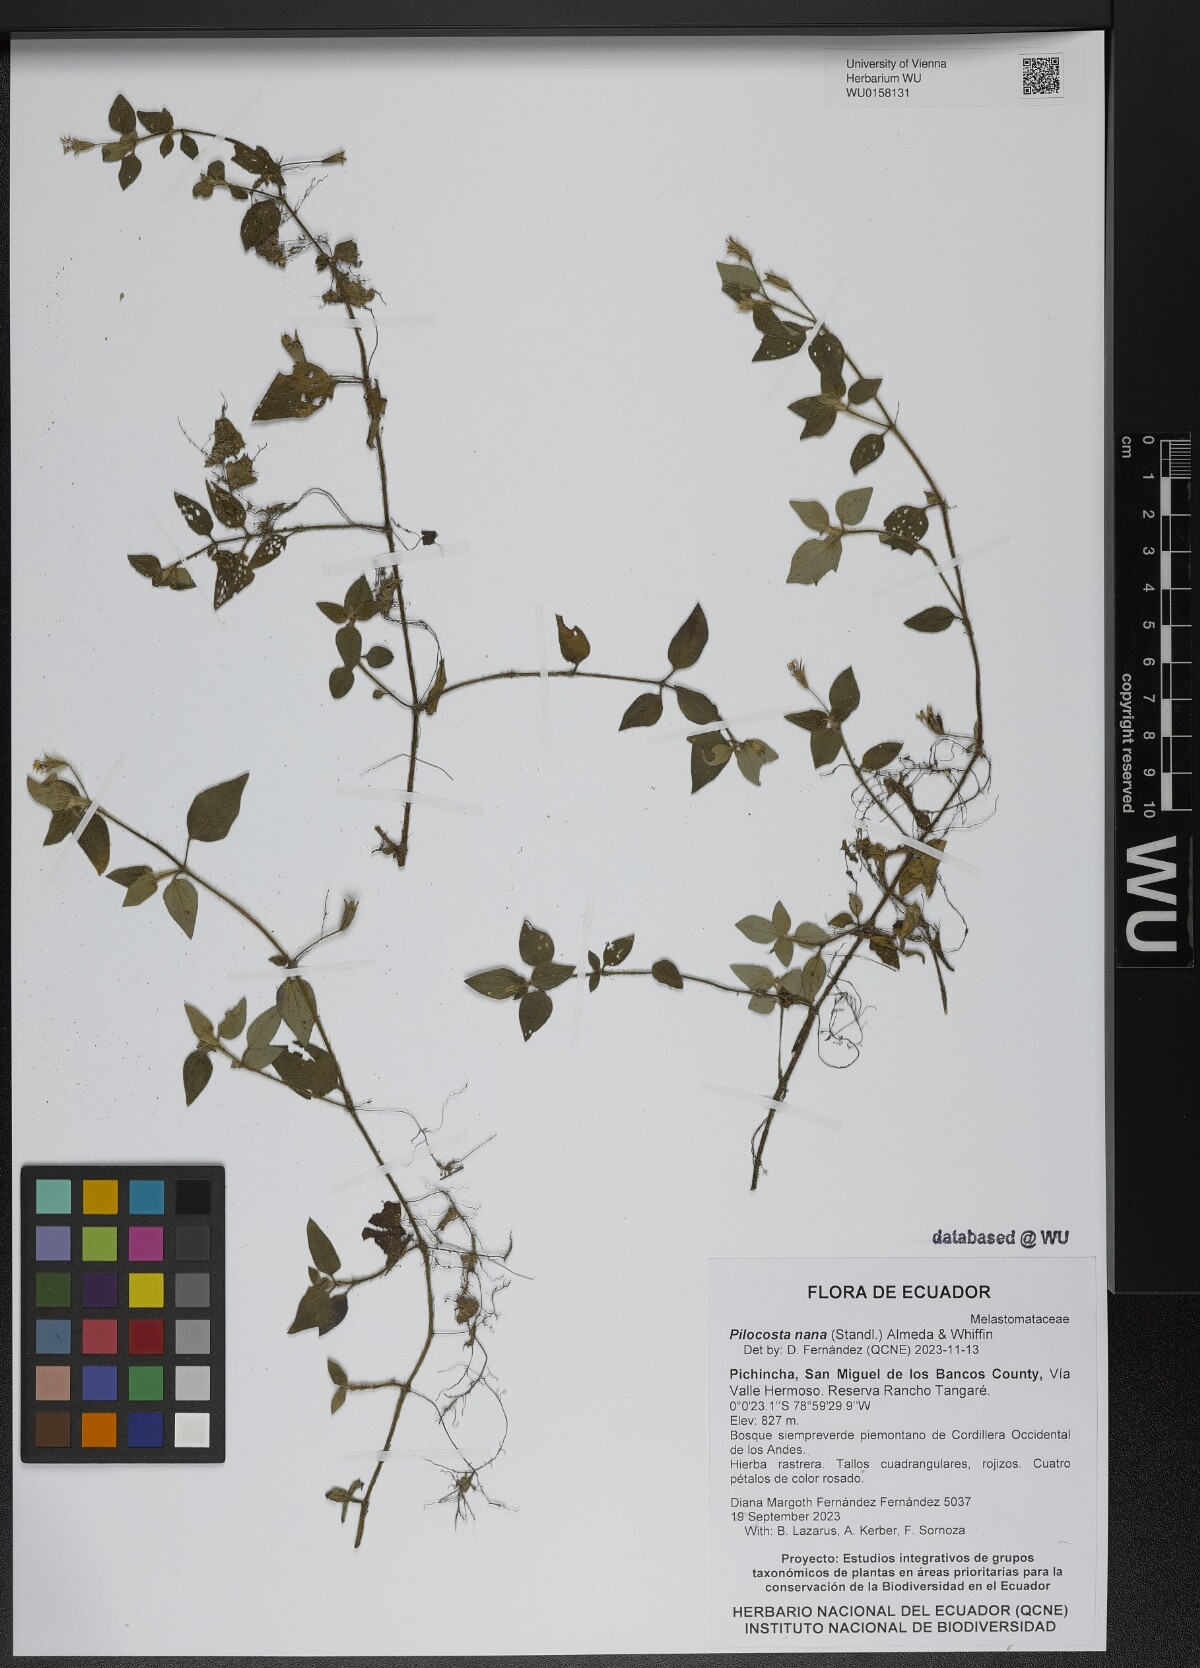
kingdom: Plantae
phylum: Tracheophyta
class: Magnoliopsida
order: Myrtales
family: Melastomataceae
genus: Pilocosta
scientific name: Pilocosta nana
